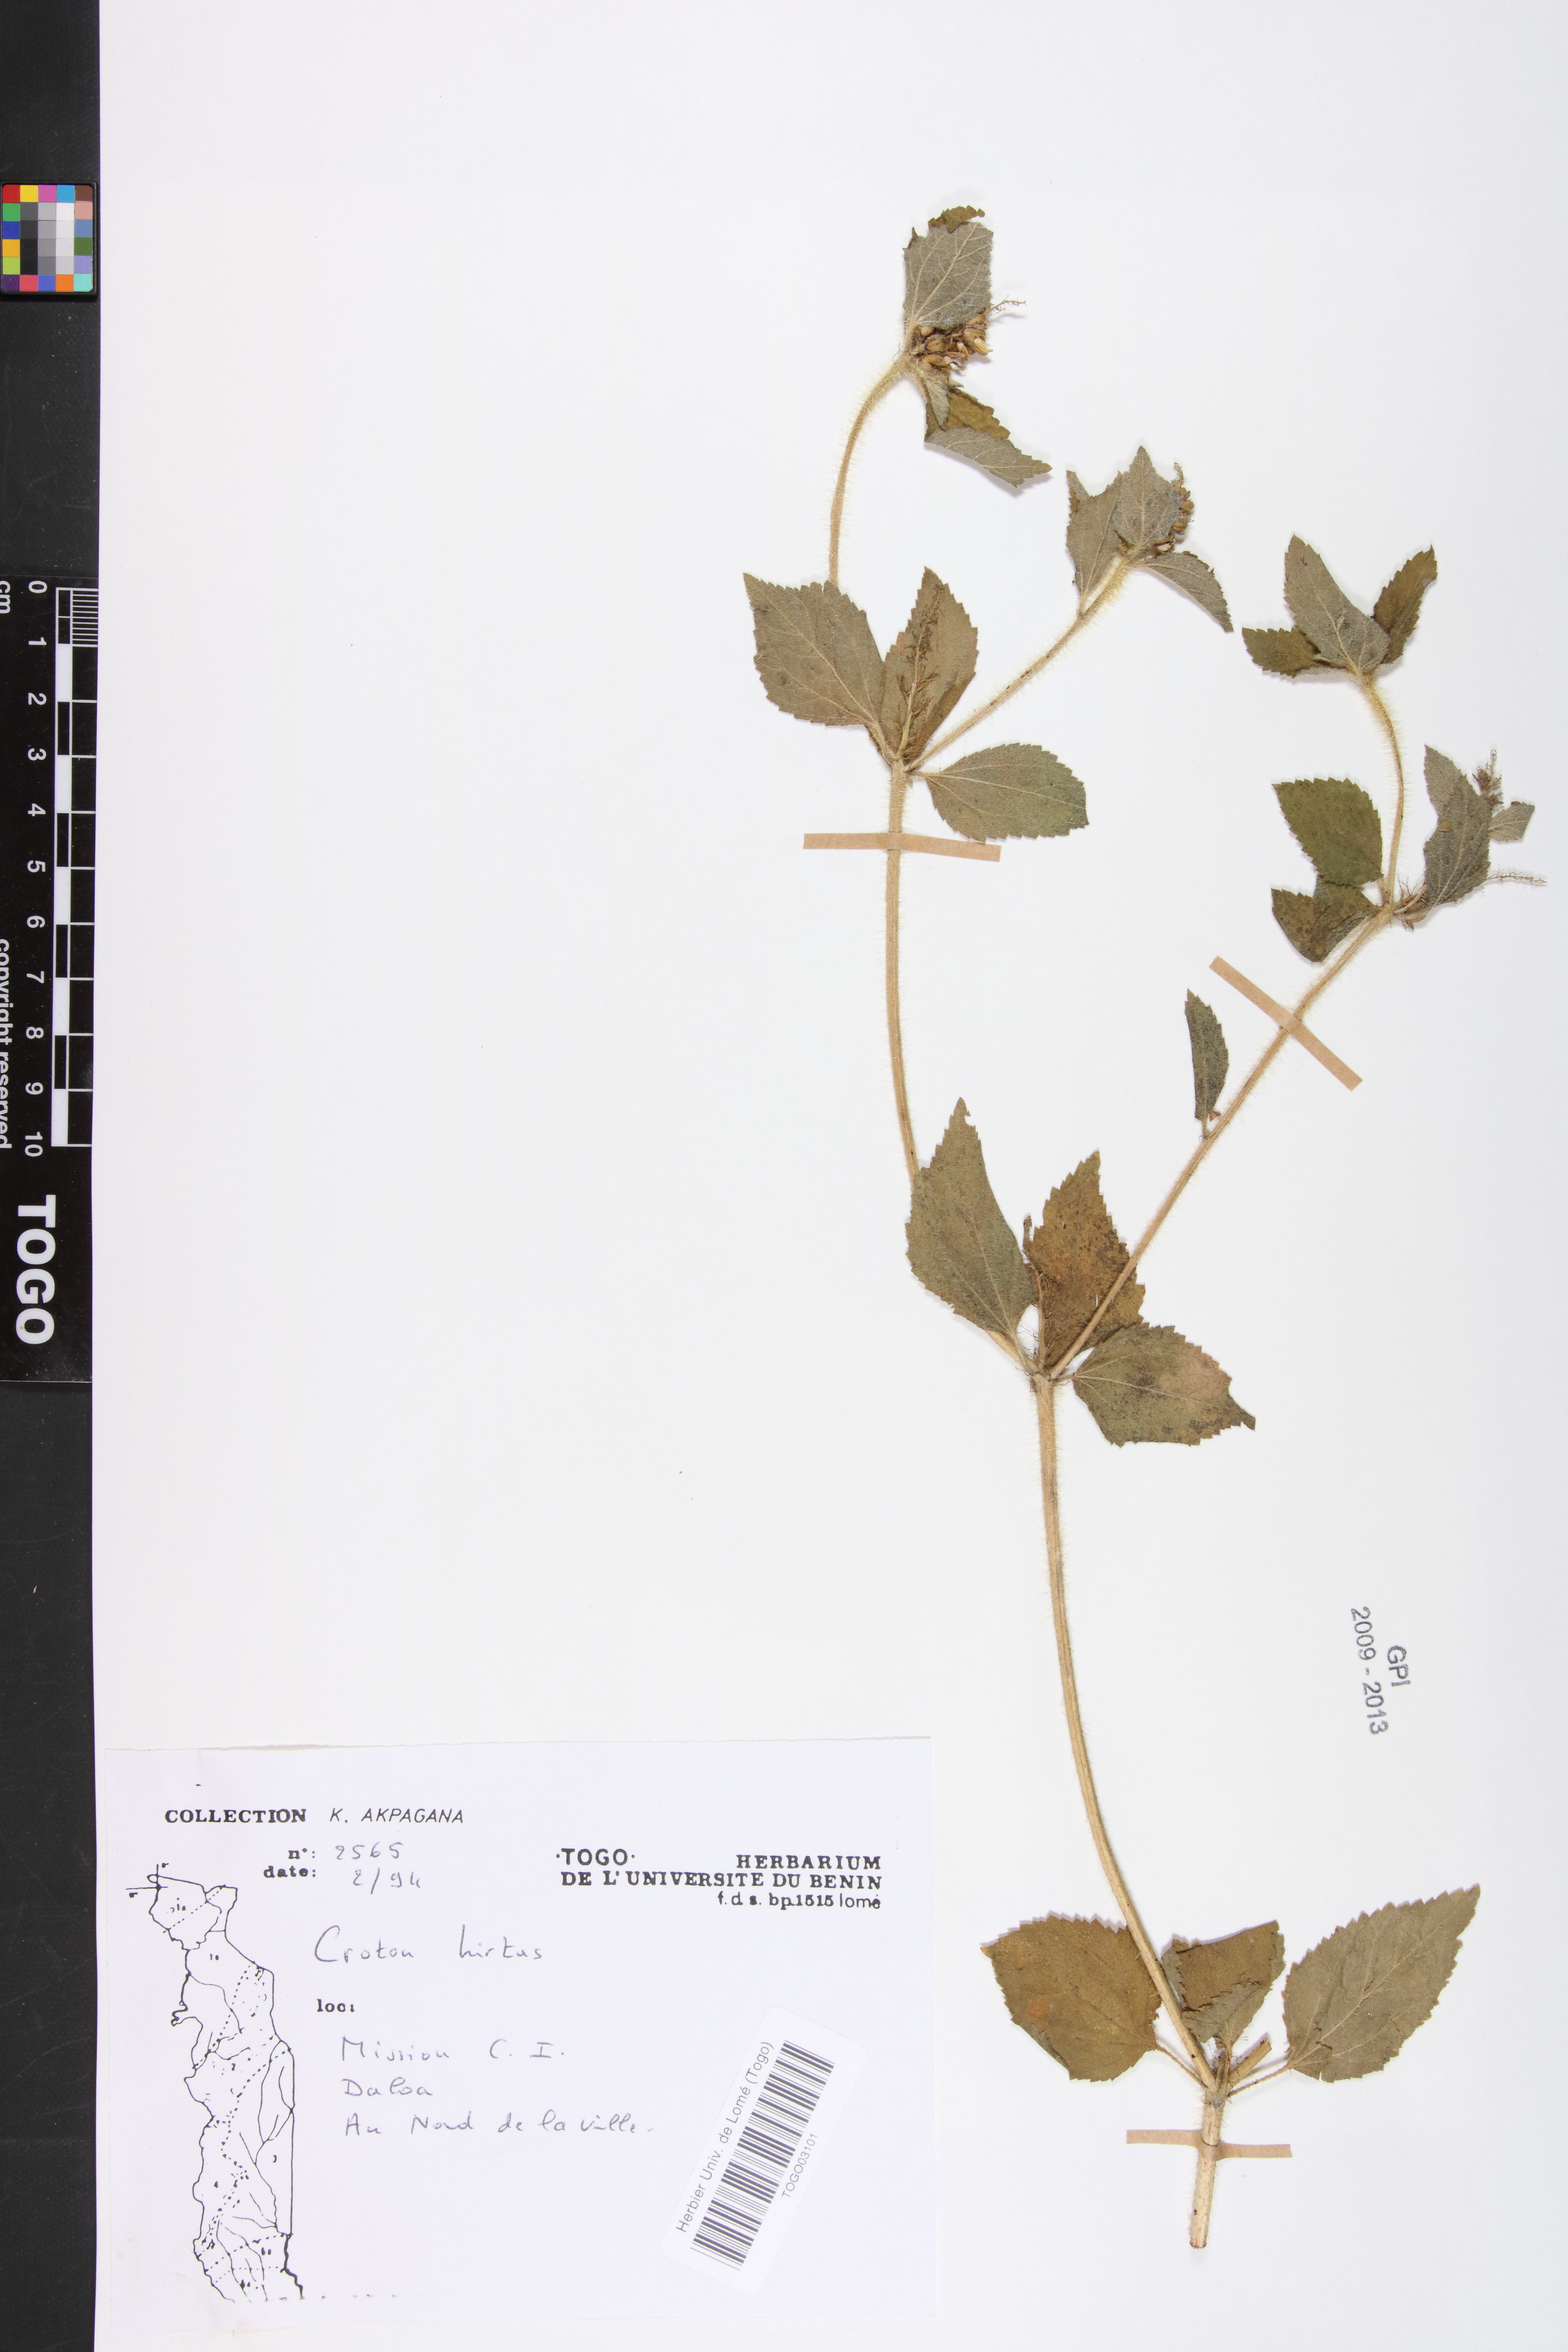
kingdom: Plantae
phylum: Tracheophyta
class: Magnoliopsida
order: Malpighiales
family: Euphorbiaceae
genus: Croton
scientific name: Croton hirtus
